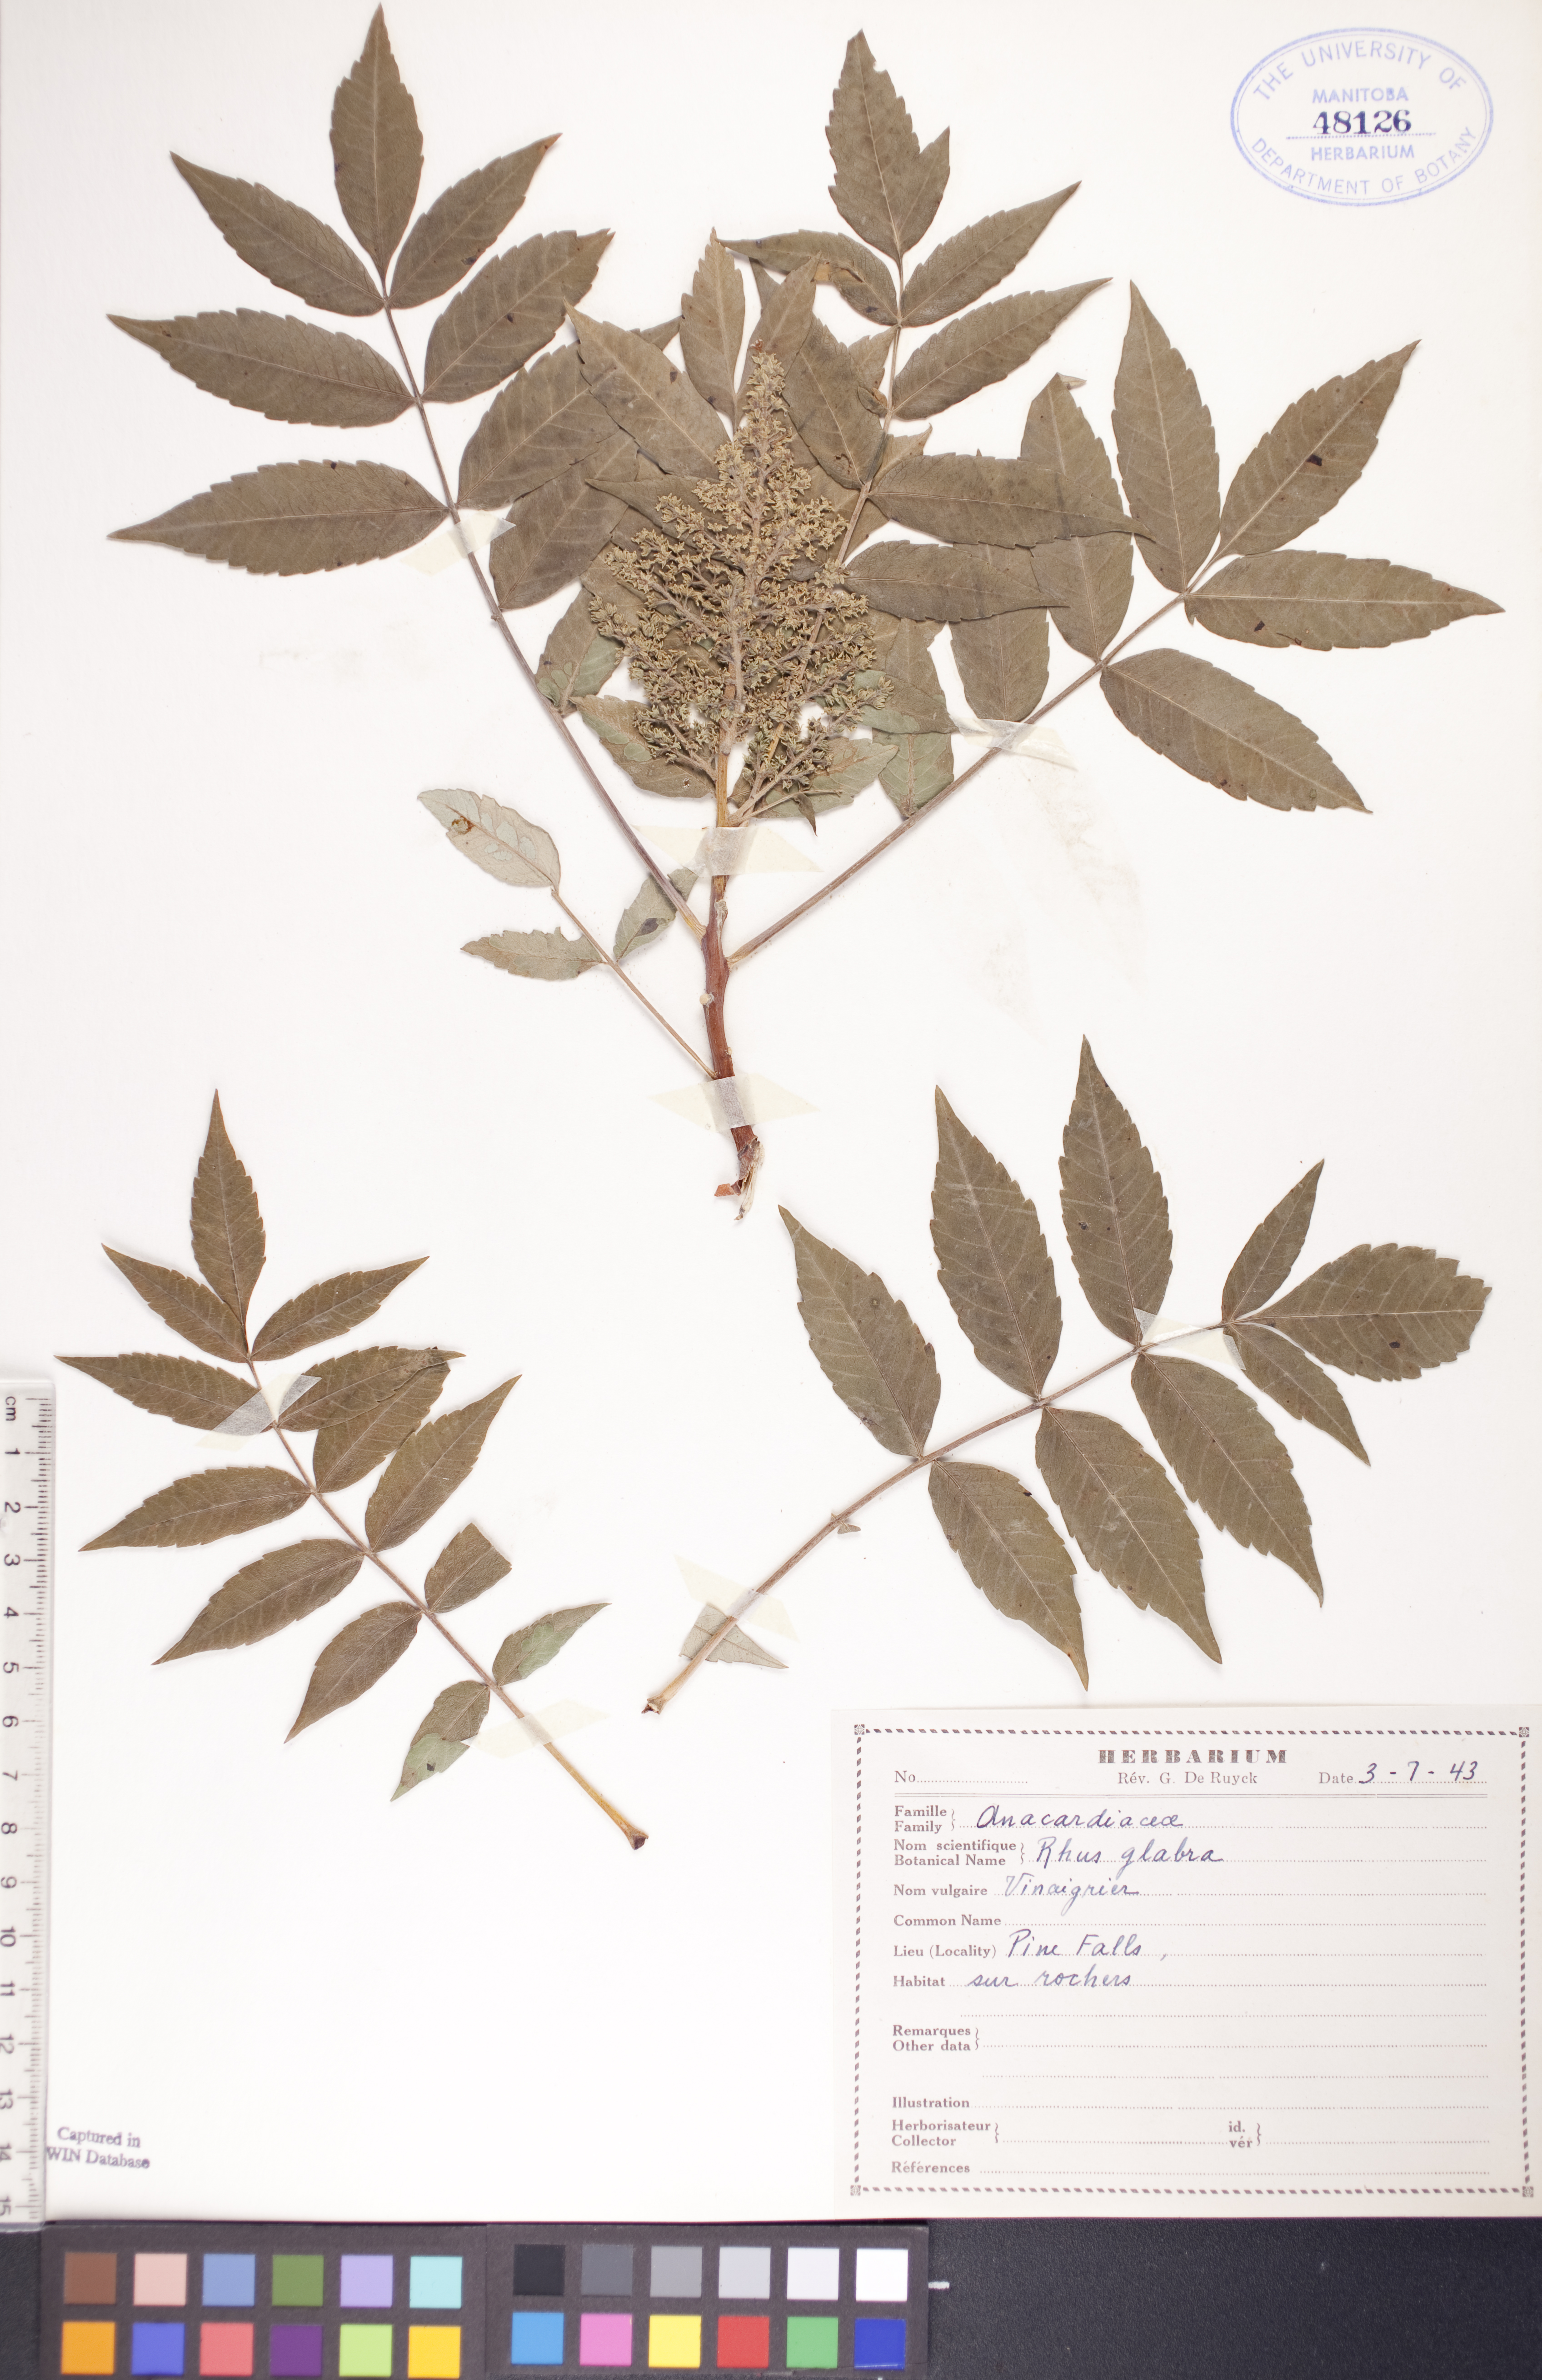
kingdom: Plantae
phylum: Tracheophyta
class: Magnoliopsida
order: Sapindales
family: Anacardiaceae
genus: Rhus
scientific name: Rhus glabra
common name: Scarlet sumac
